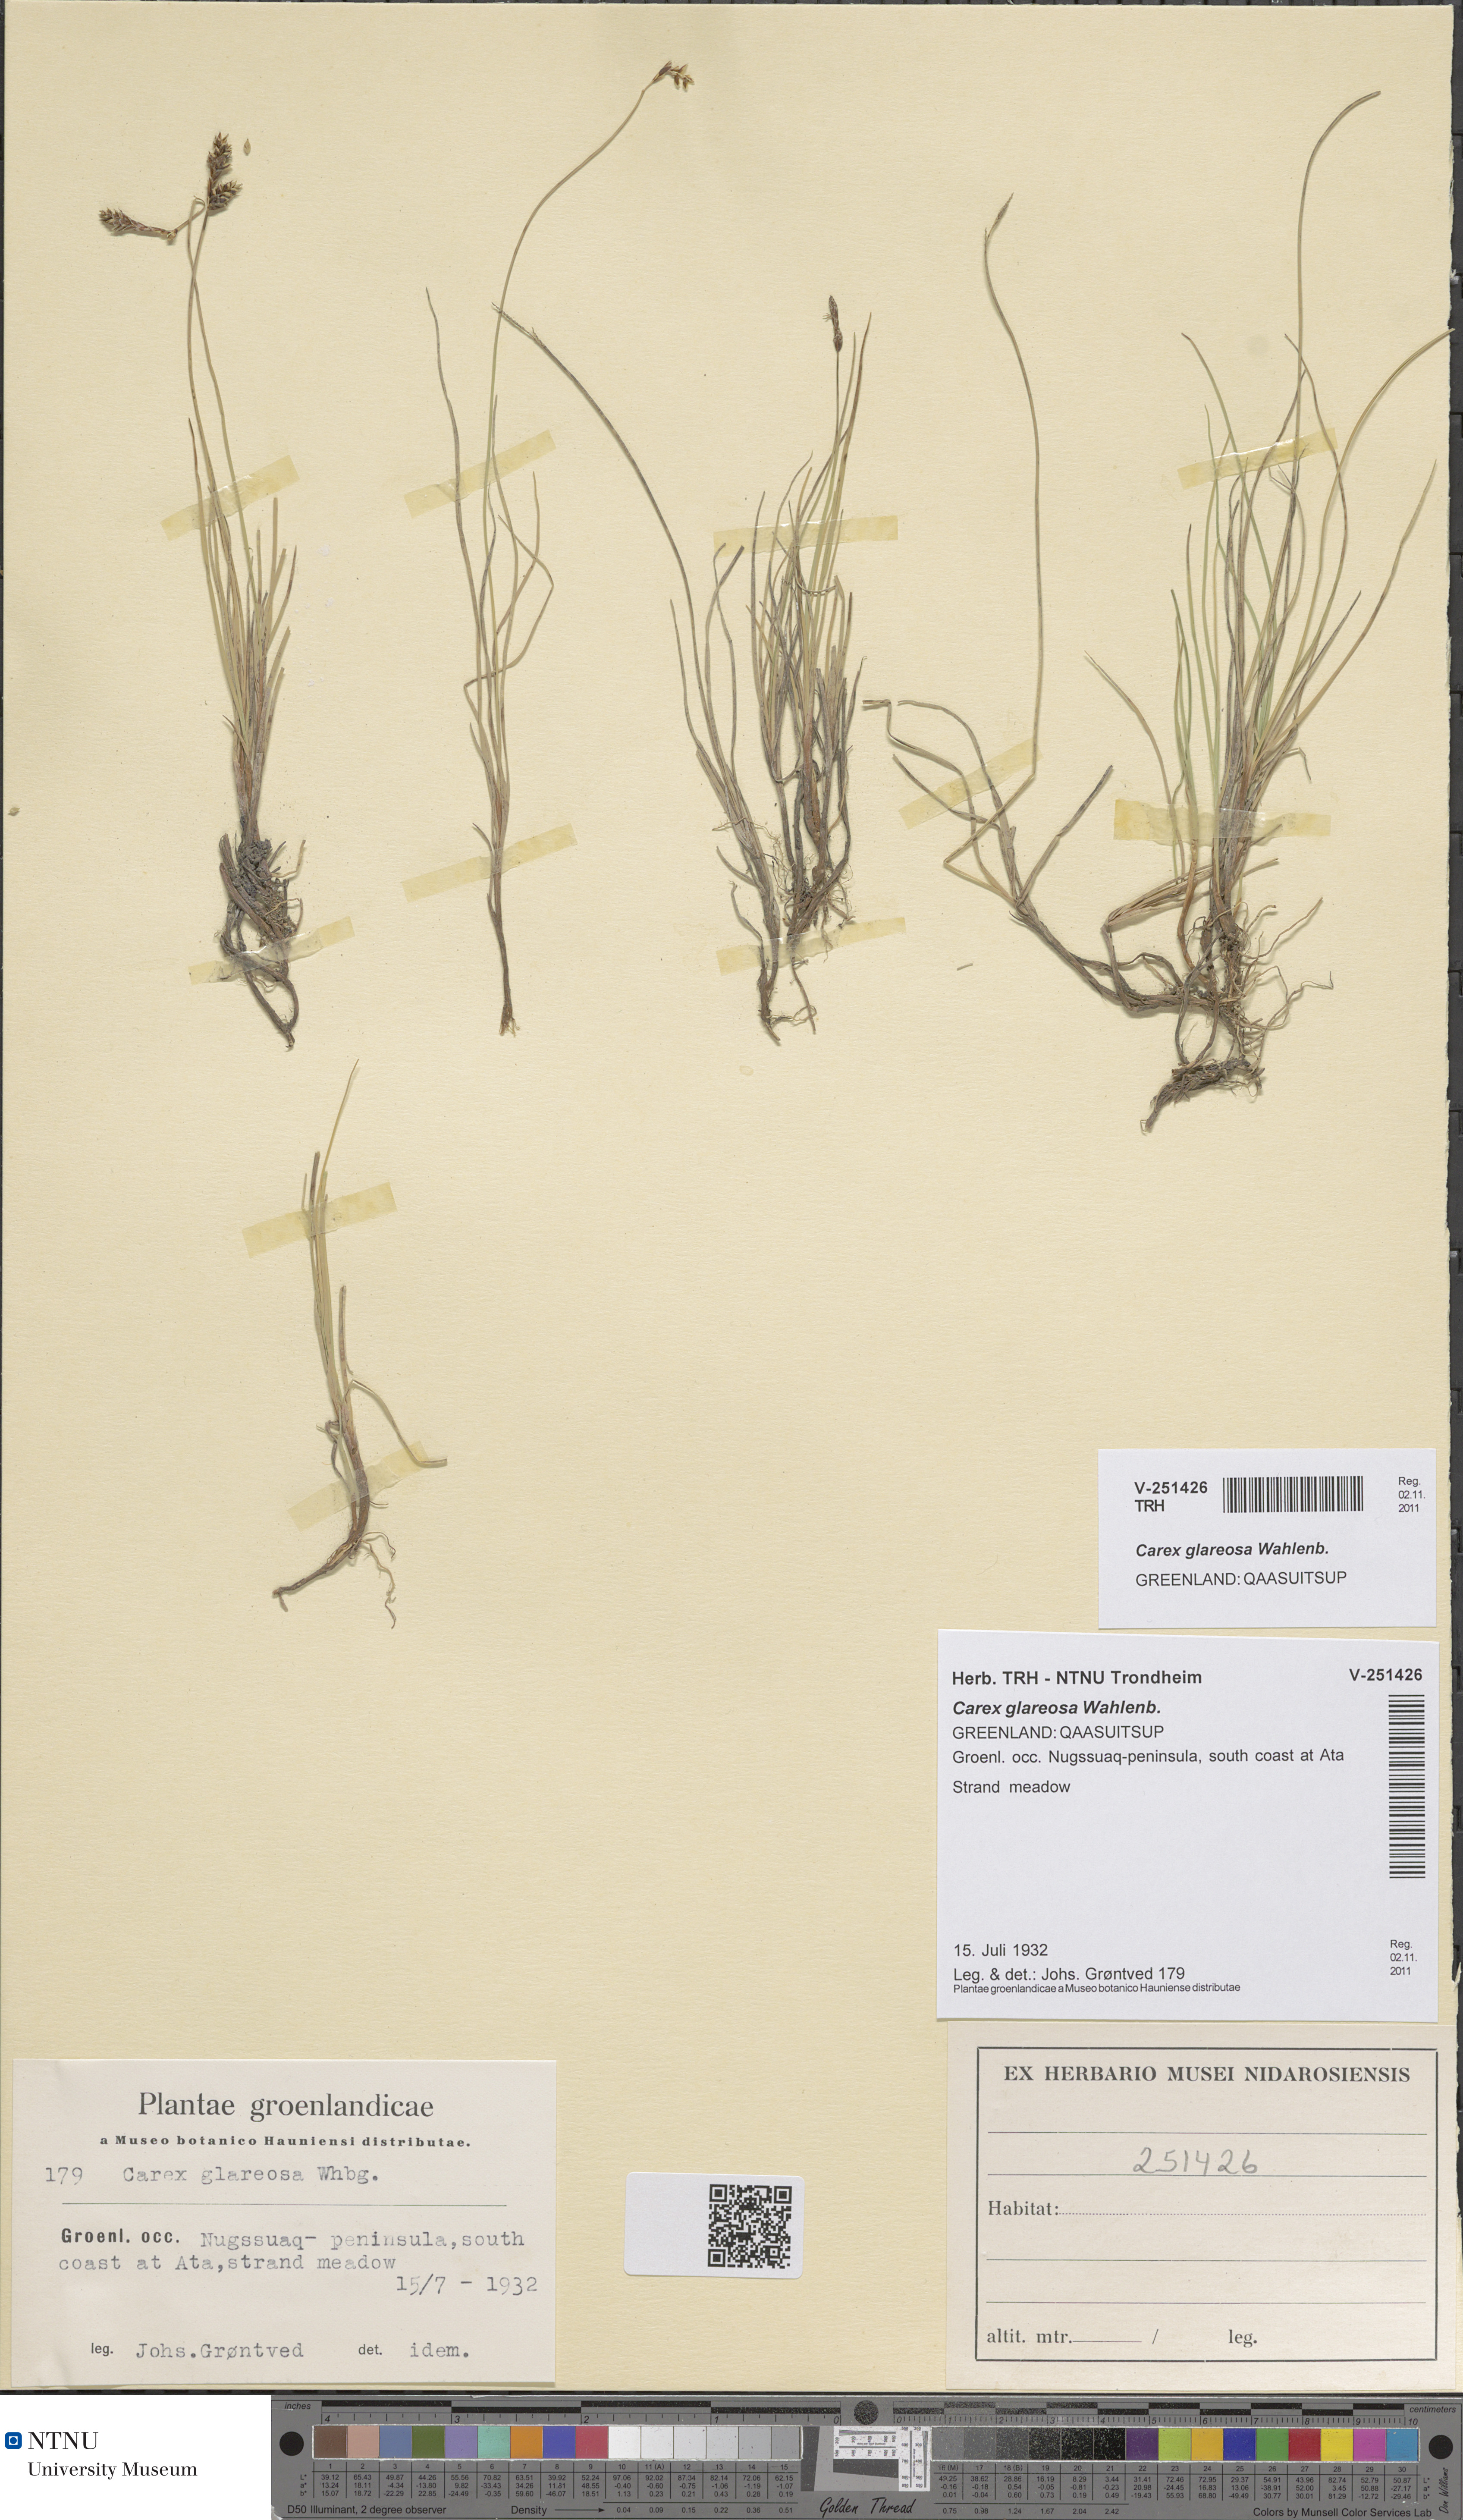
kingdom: Plantae
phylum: Tracheophyta
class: Liliopsida
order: Poales
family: Cyperaceae
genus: Carex
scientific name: Carex glareosa
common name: Clustered sedge
